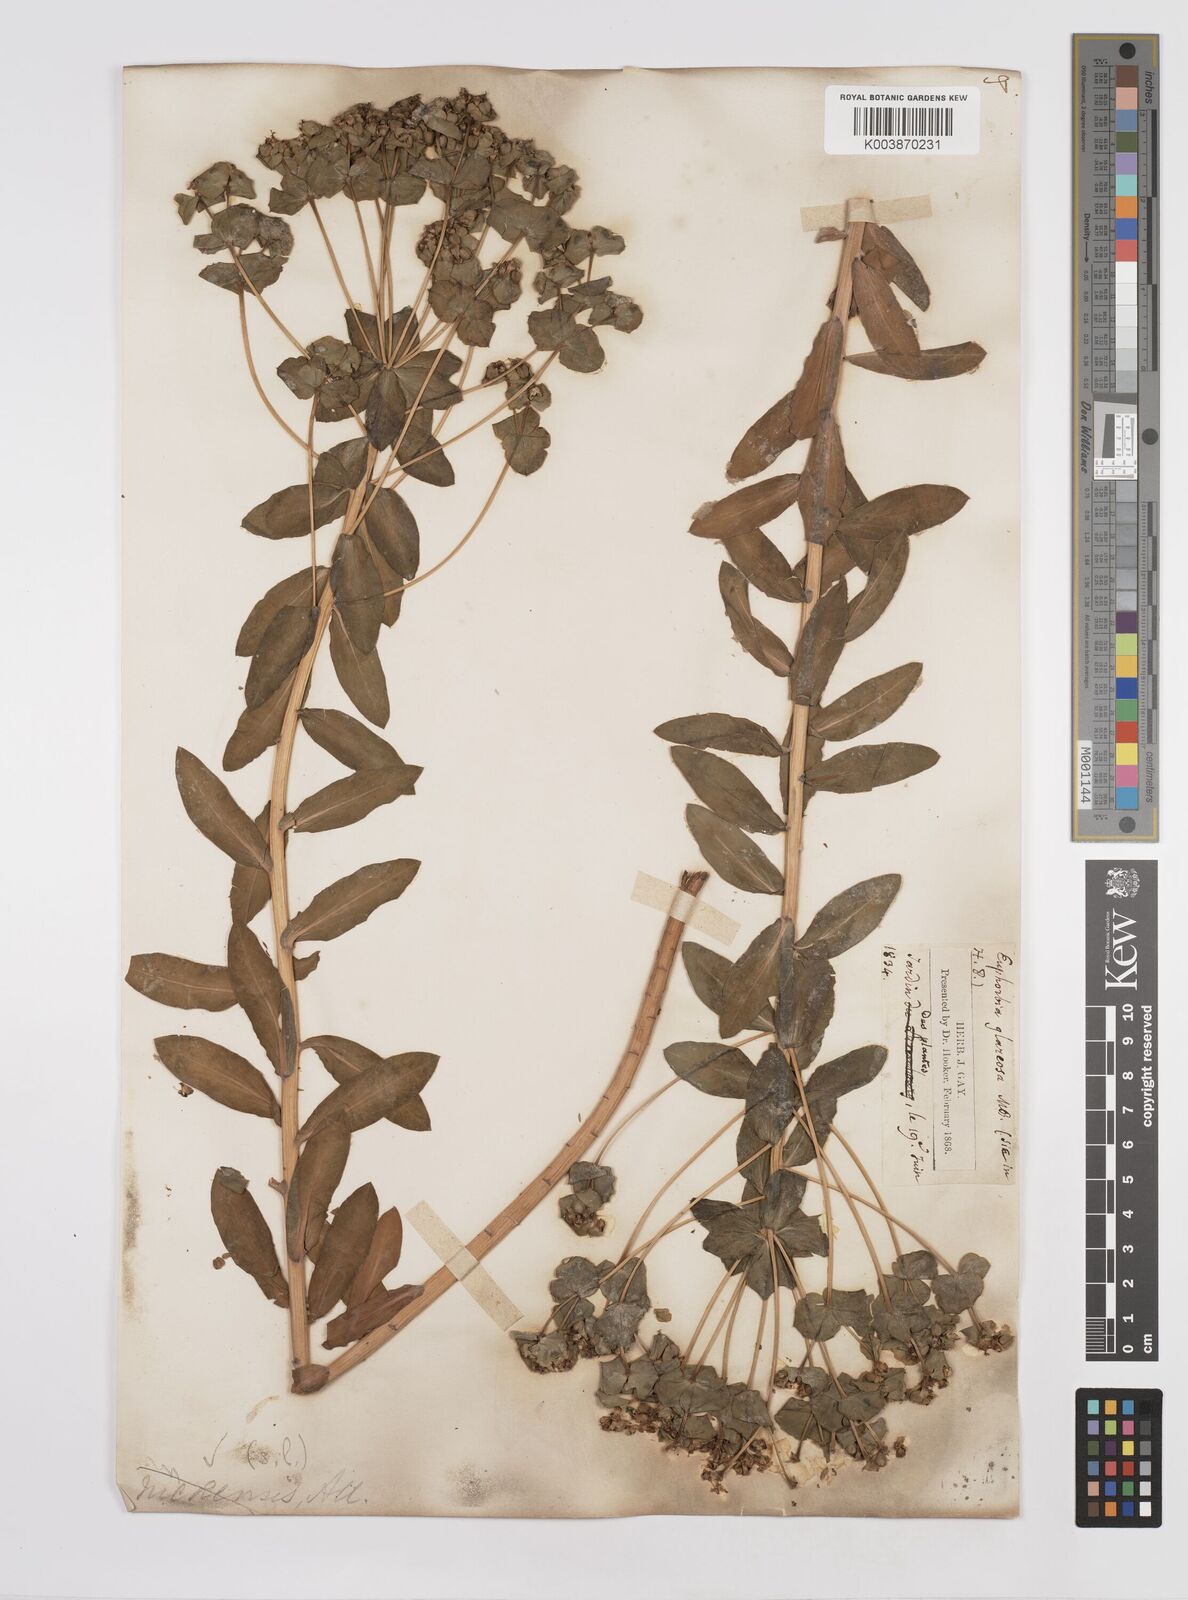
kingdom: Plantae
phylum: Tracheophyta
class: Magnoliopsida
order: Malpighiales
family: Euphorbiaceae
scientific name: Euphorbiaceae
